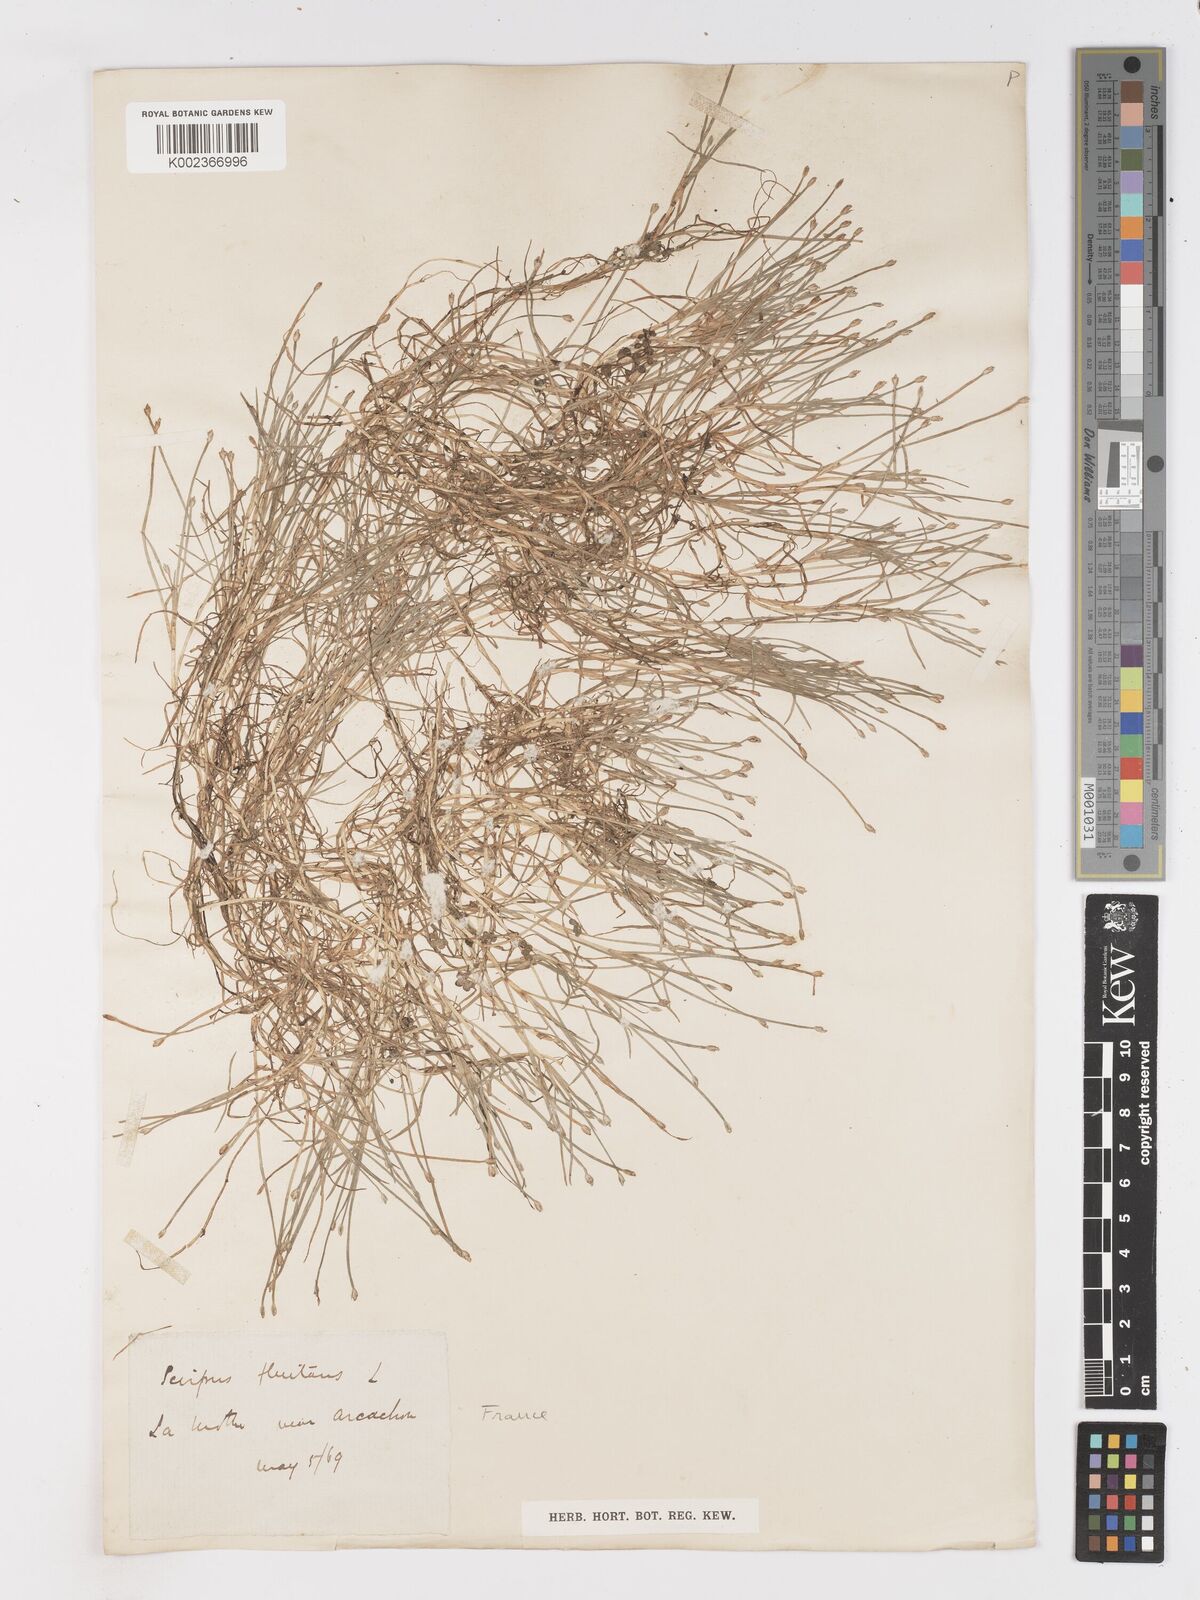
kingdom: Plantae
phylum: Tracheophyta
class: Liliopsida
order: Poales
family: Cyperaceae
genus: Isolepis
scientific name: Isolepis fluitans
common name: Floating club-rush
